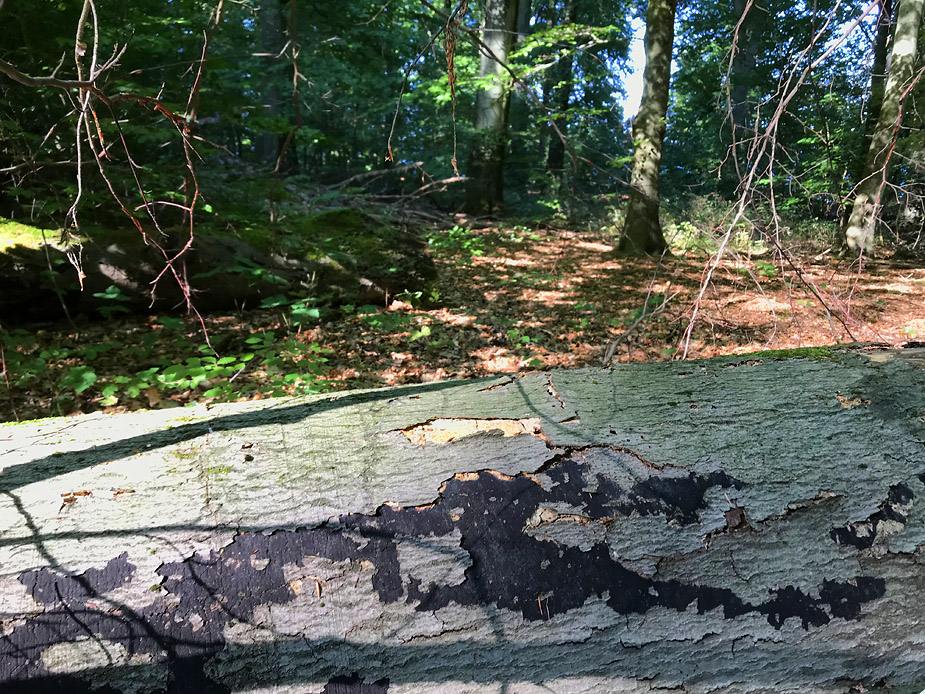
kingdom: Fungi
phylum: Ascomycota
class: Sordariomycetes
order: Xylariales
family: Diatrypaceae
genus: Eutypa
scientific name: Eutypa spinosa
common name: grov kulskorpe
